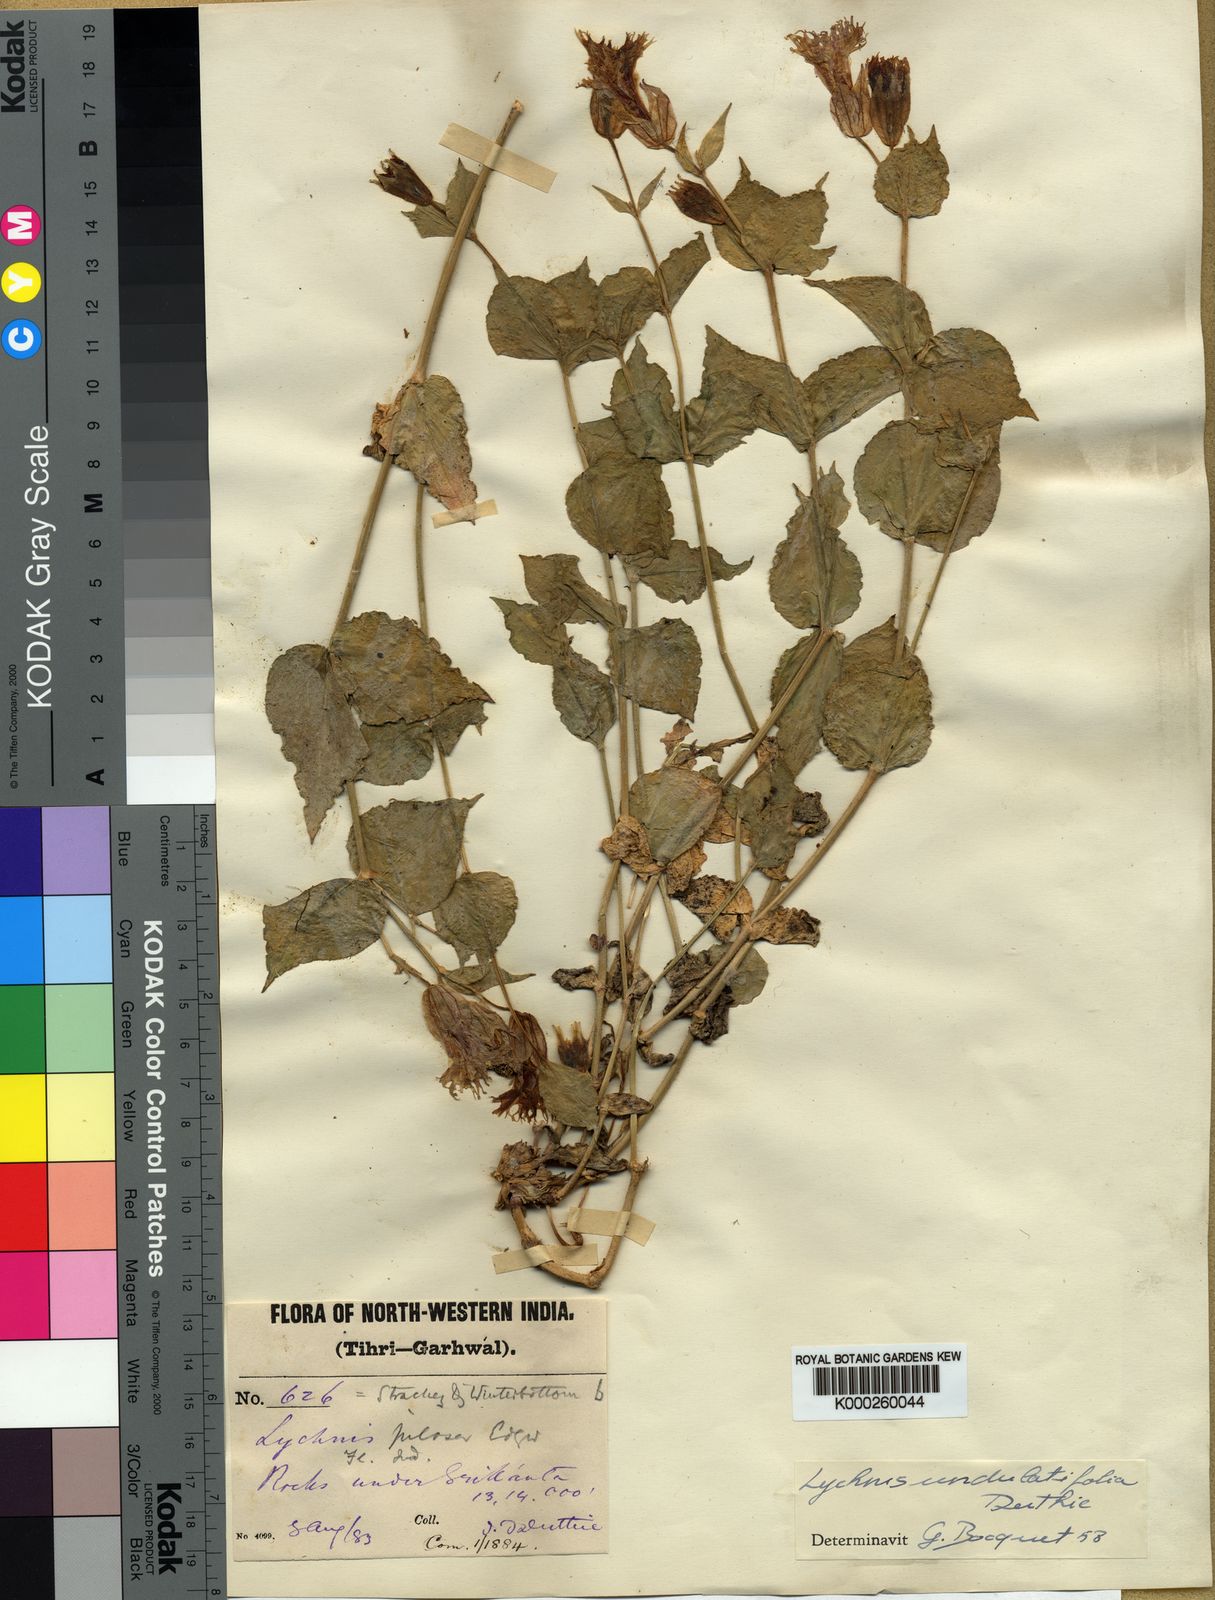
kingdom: Plantae
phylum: Tracheophyta
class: Magnoliopsida
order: Caryophyllales
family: Caryophyllaceae
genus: Silene
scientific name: Silene gangotriana
